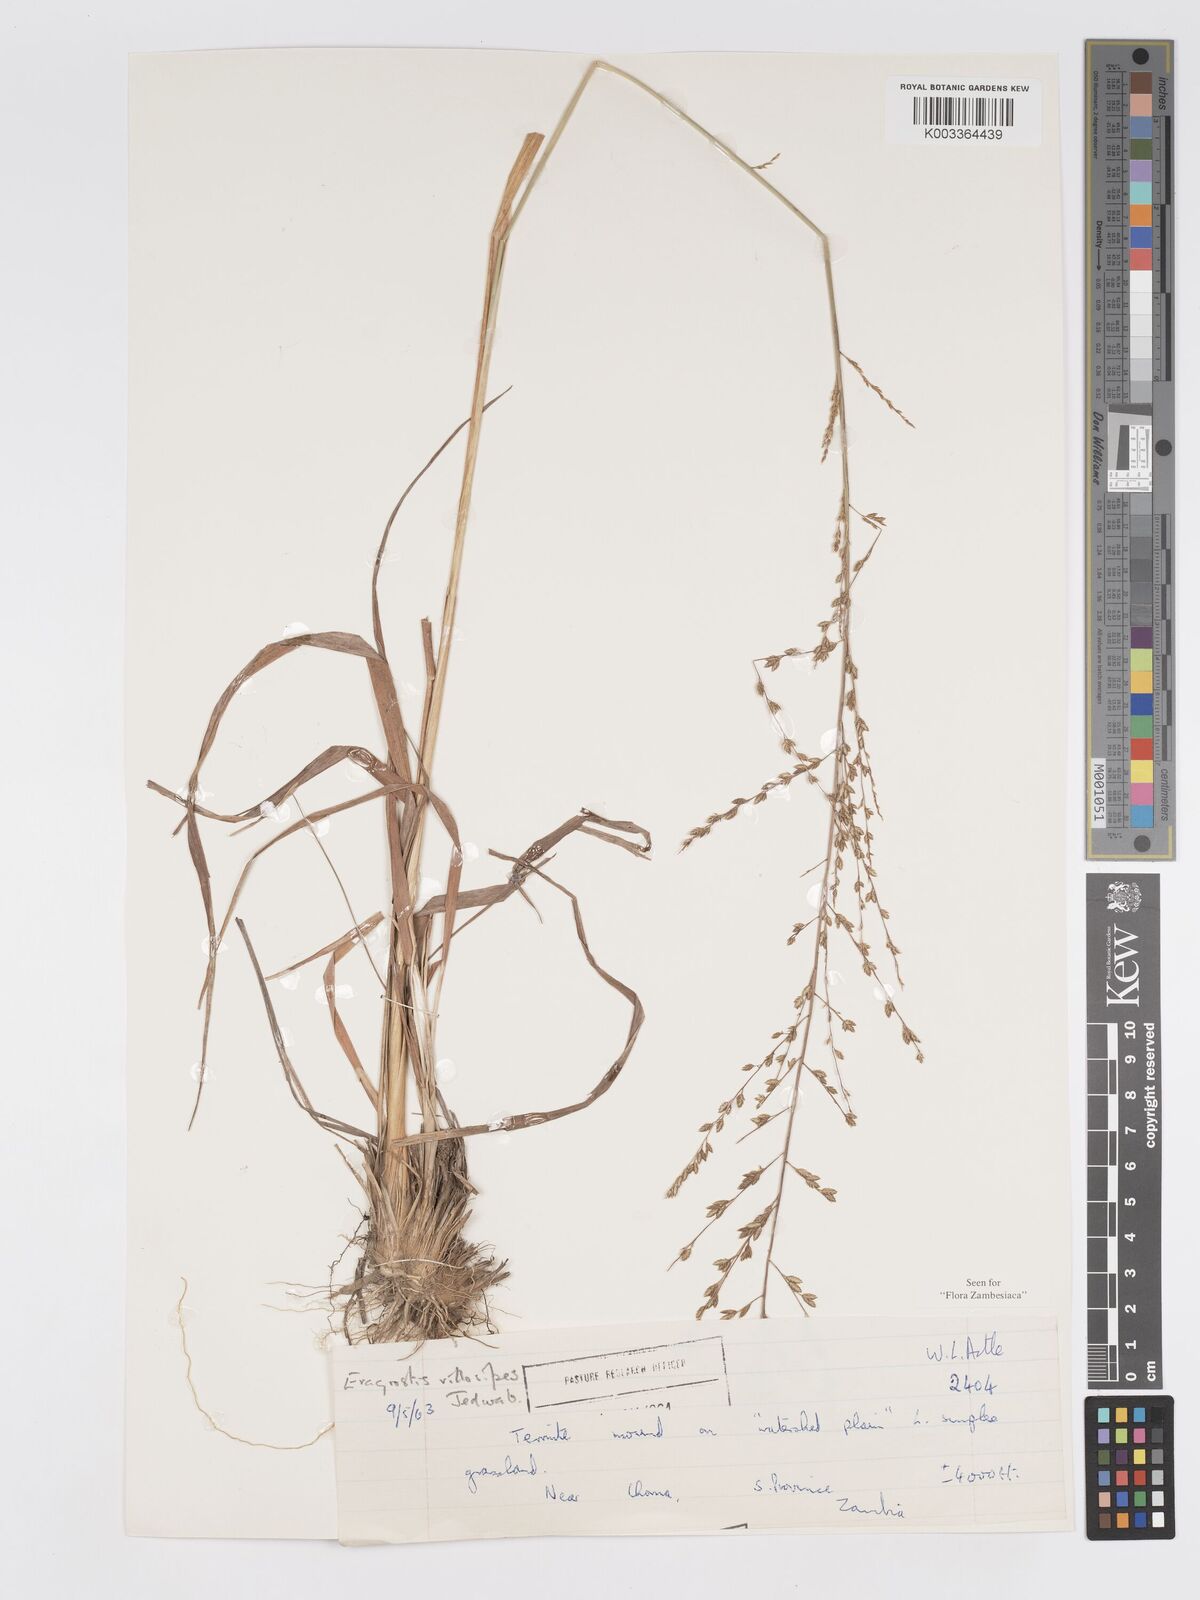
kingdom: Plantae
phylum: Tracheophyta
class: Liliopsida
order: Poales
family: Poaceae
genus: Eragrostis
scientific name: Eragrostis sclerantha
